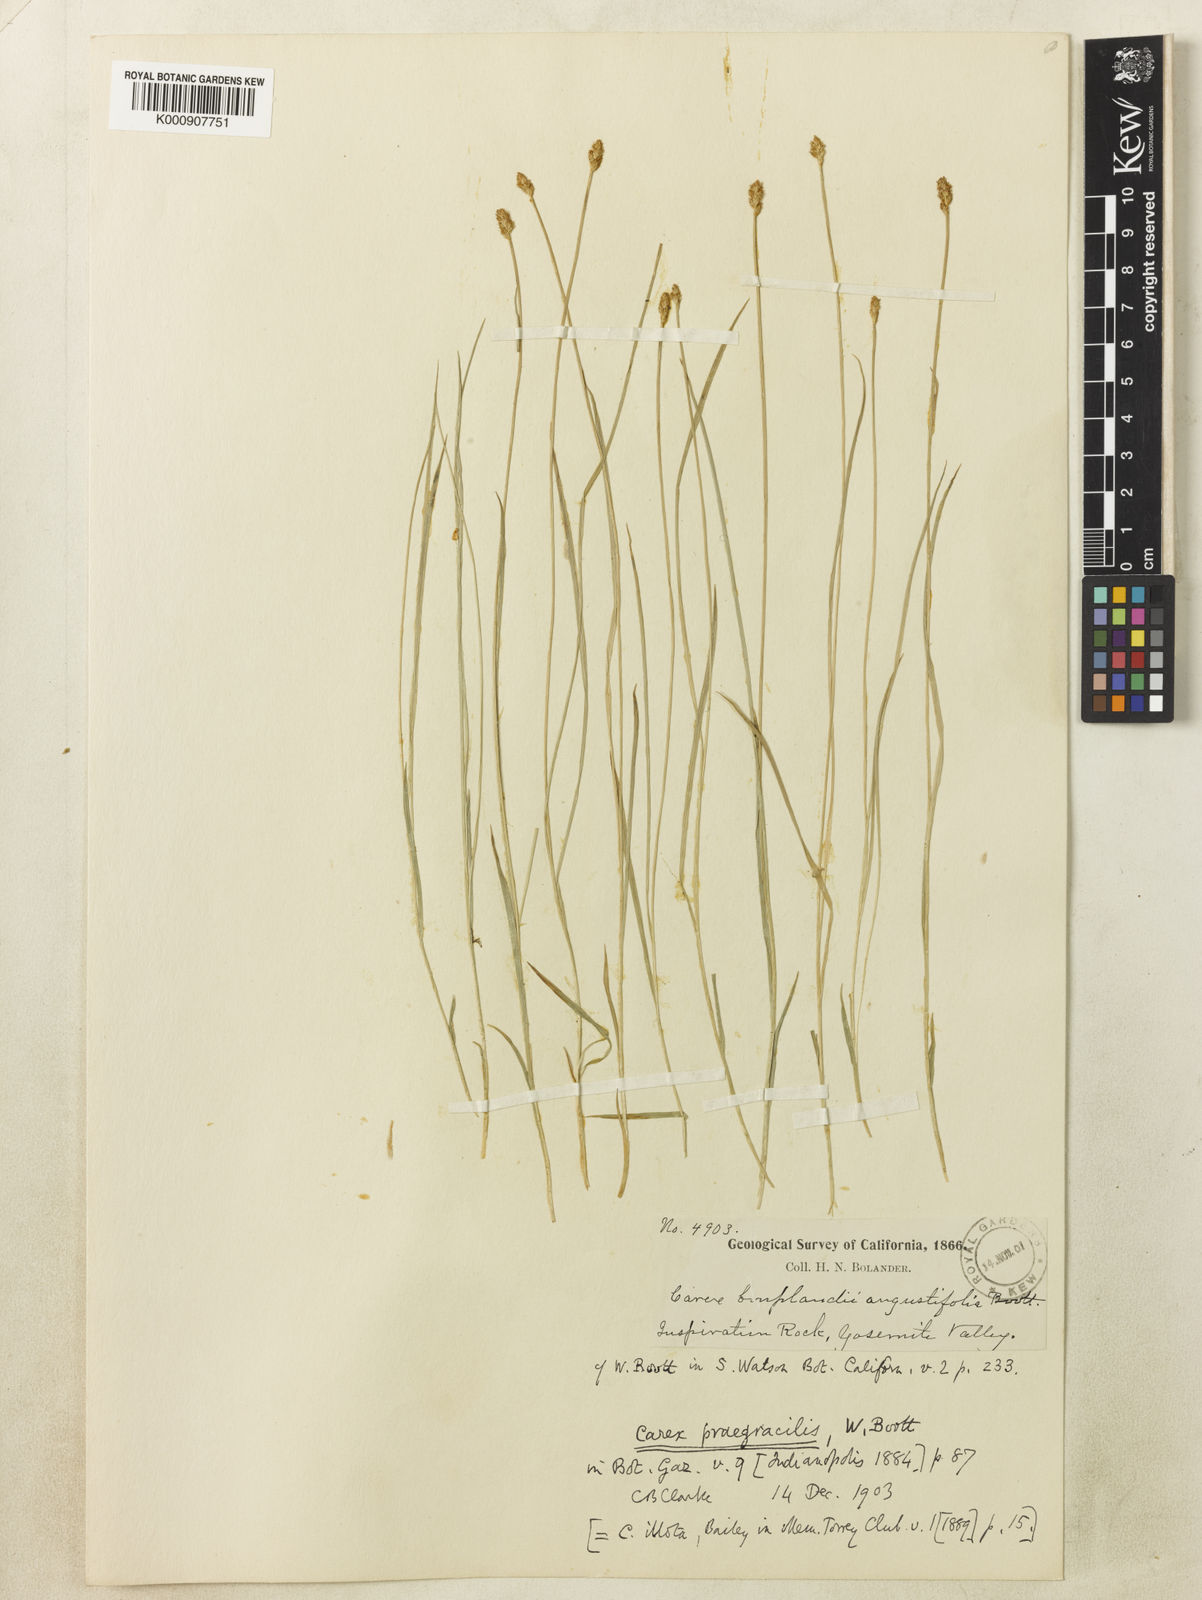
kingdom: Plantae
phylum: Tracheophyta
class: Liliopsida
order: Poales
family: Cyperaceae
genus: Carex
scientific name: Carex jonesii
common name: Jones' sedge
